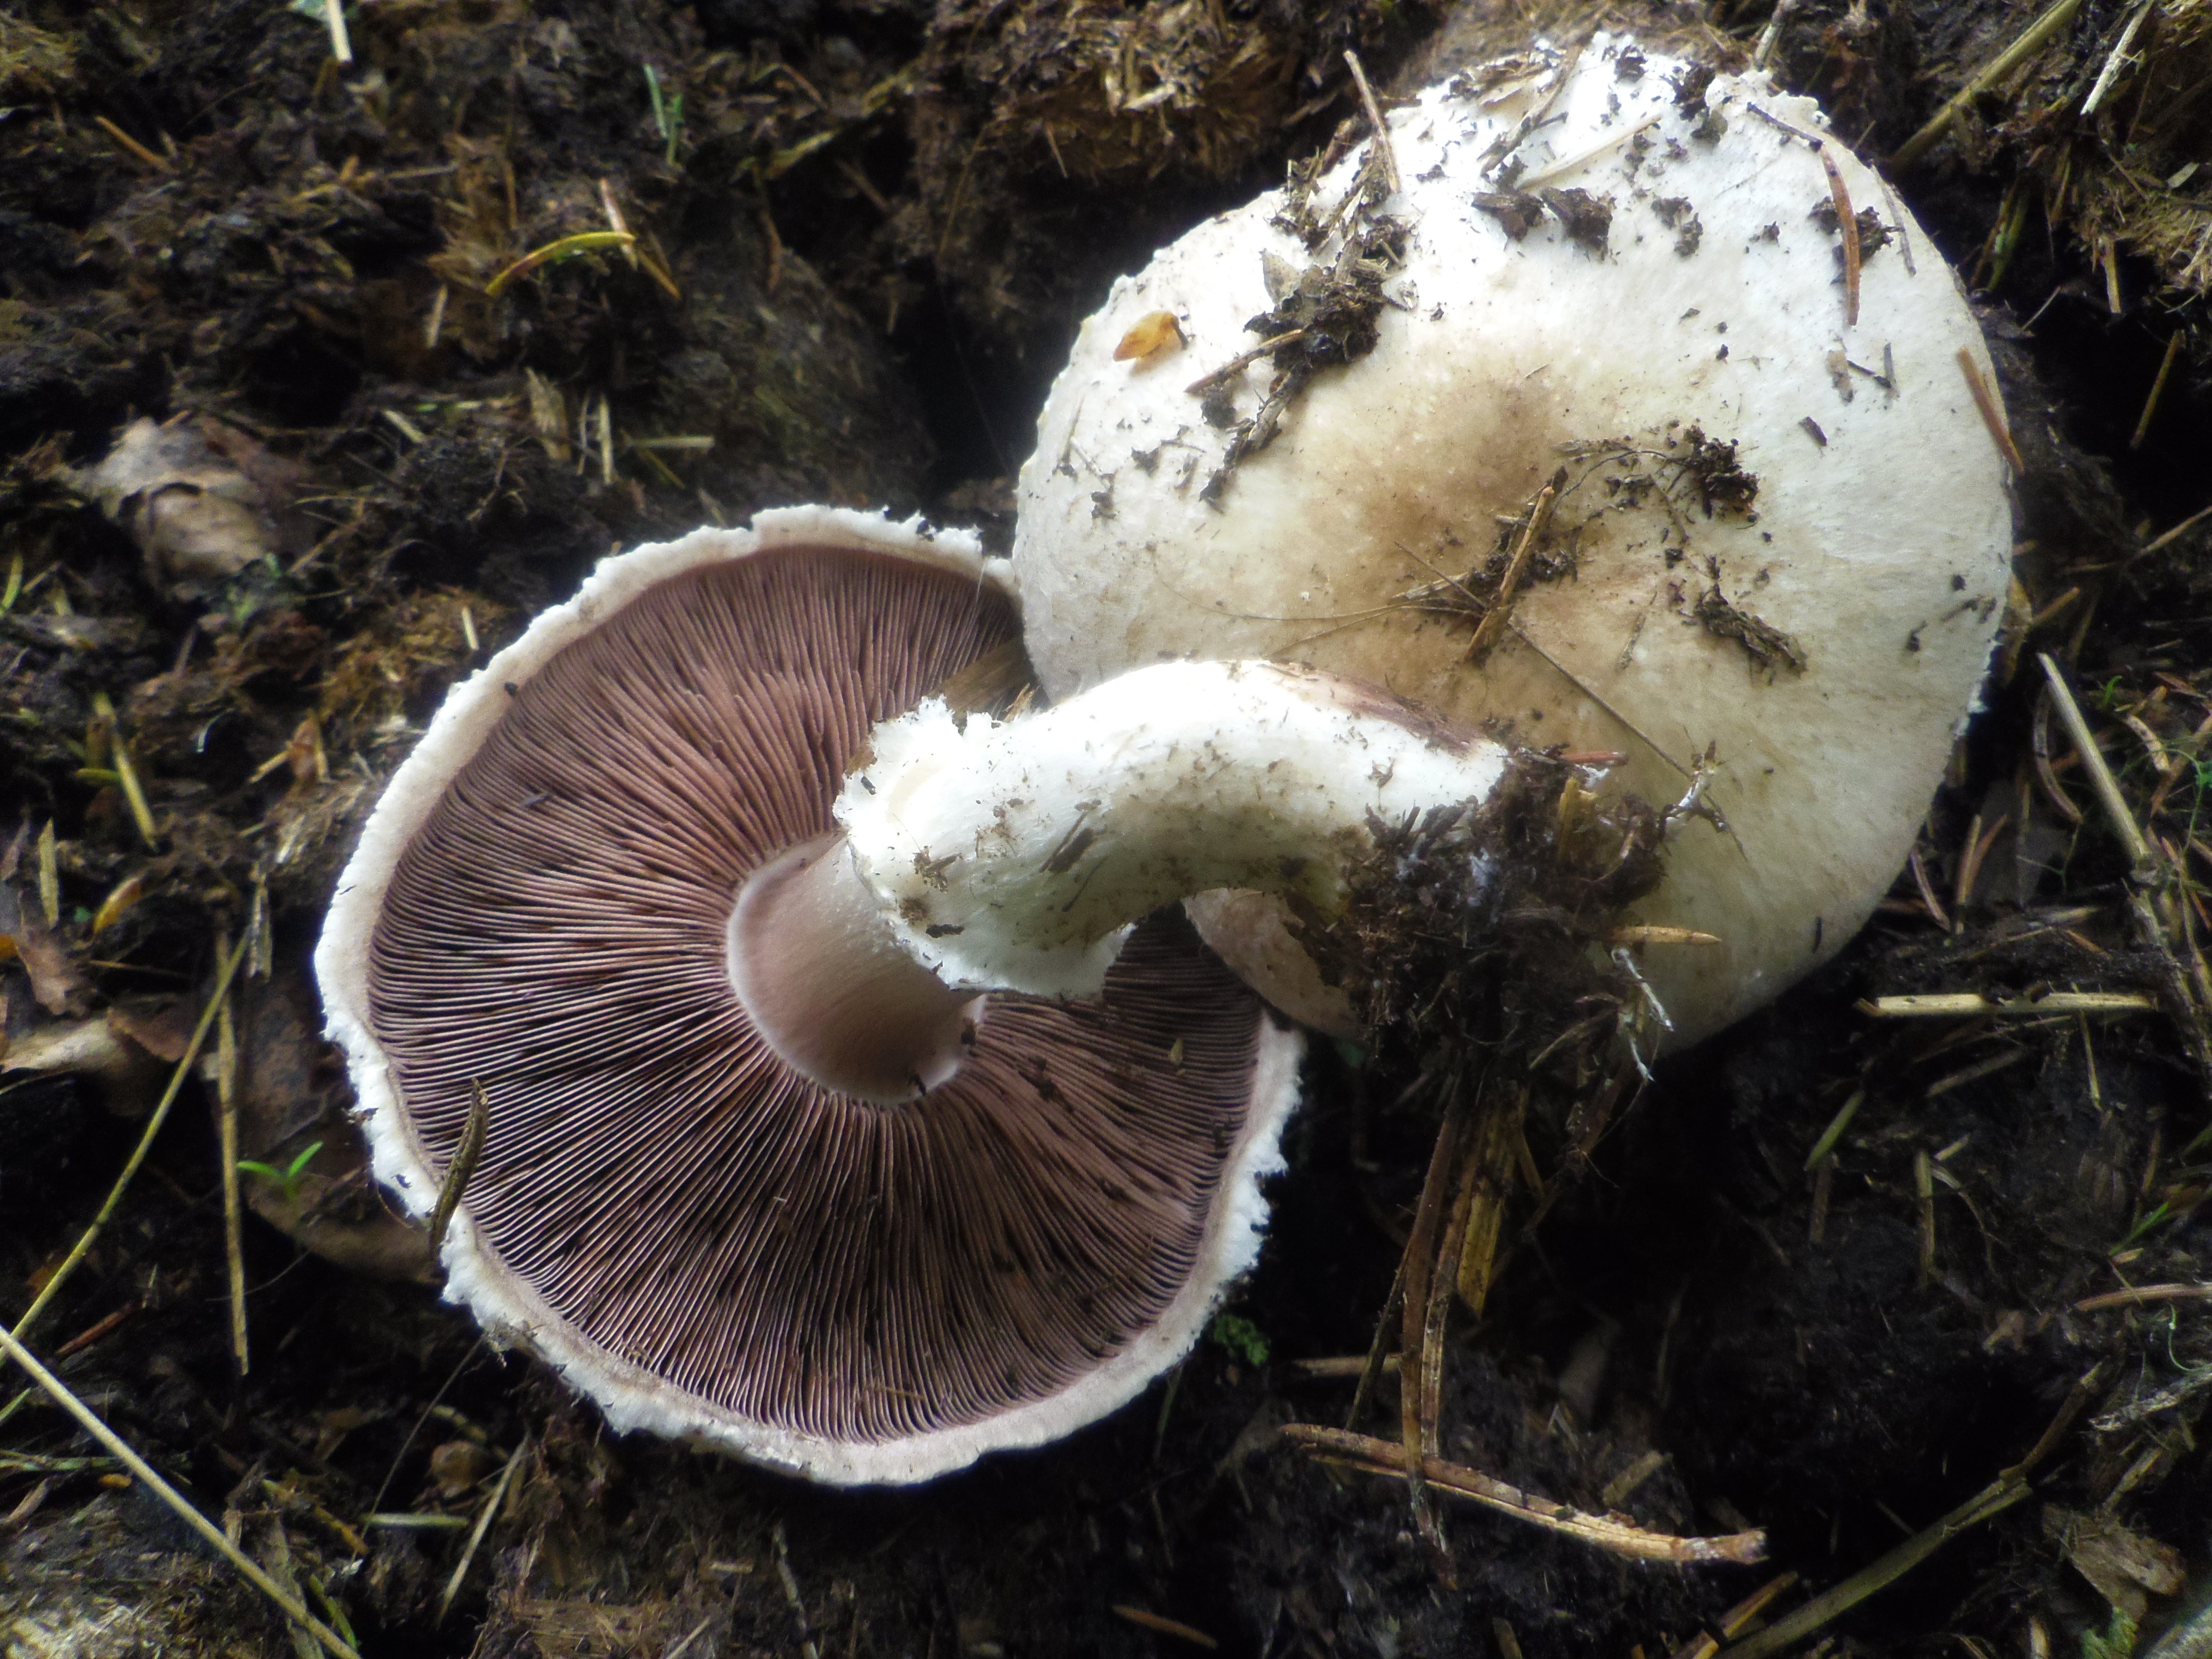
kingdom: Fungi
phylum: Basidiomycota
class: Agaricomycetes
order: Agaricales
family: Agaricaceae
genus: Agaricus
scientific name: Agaricus
